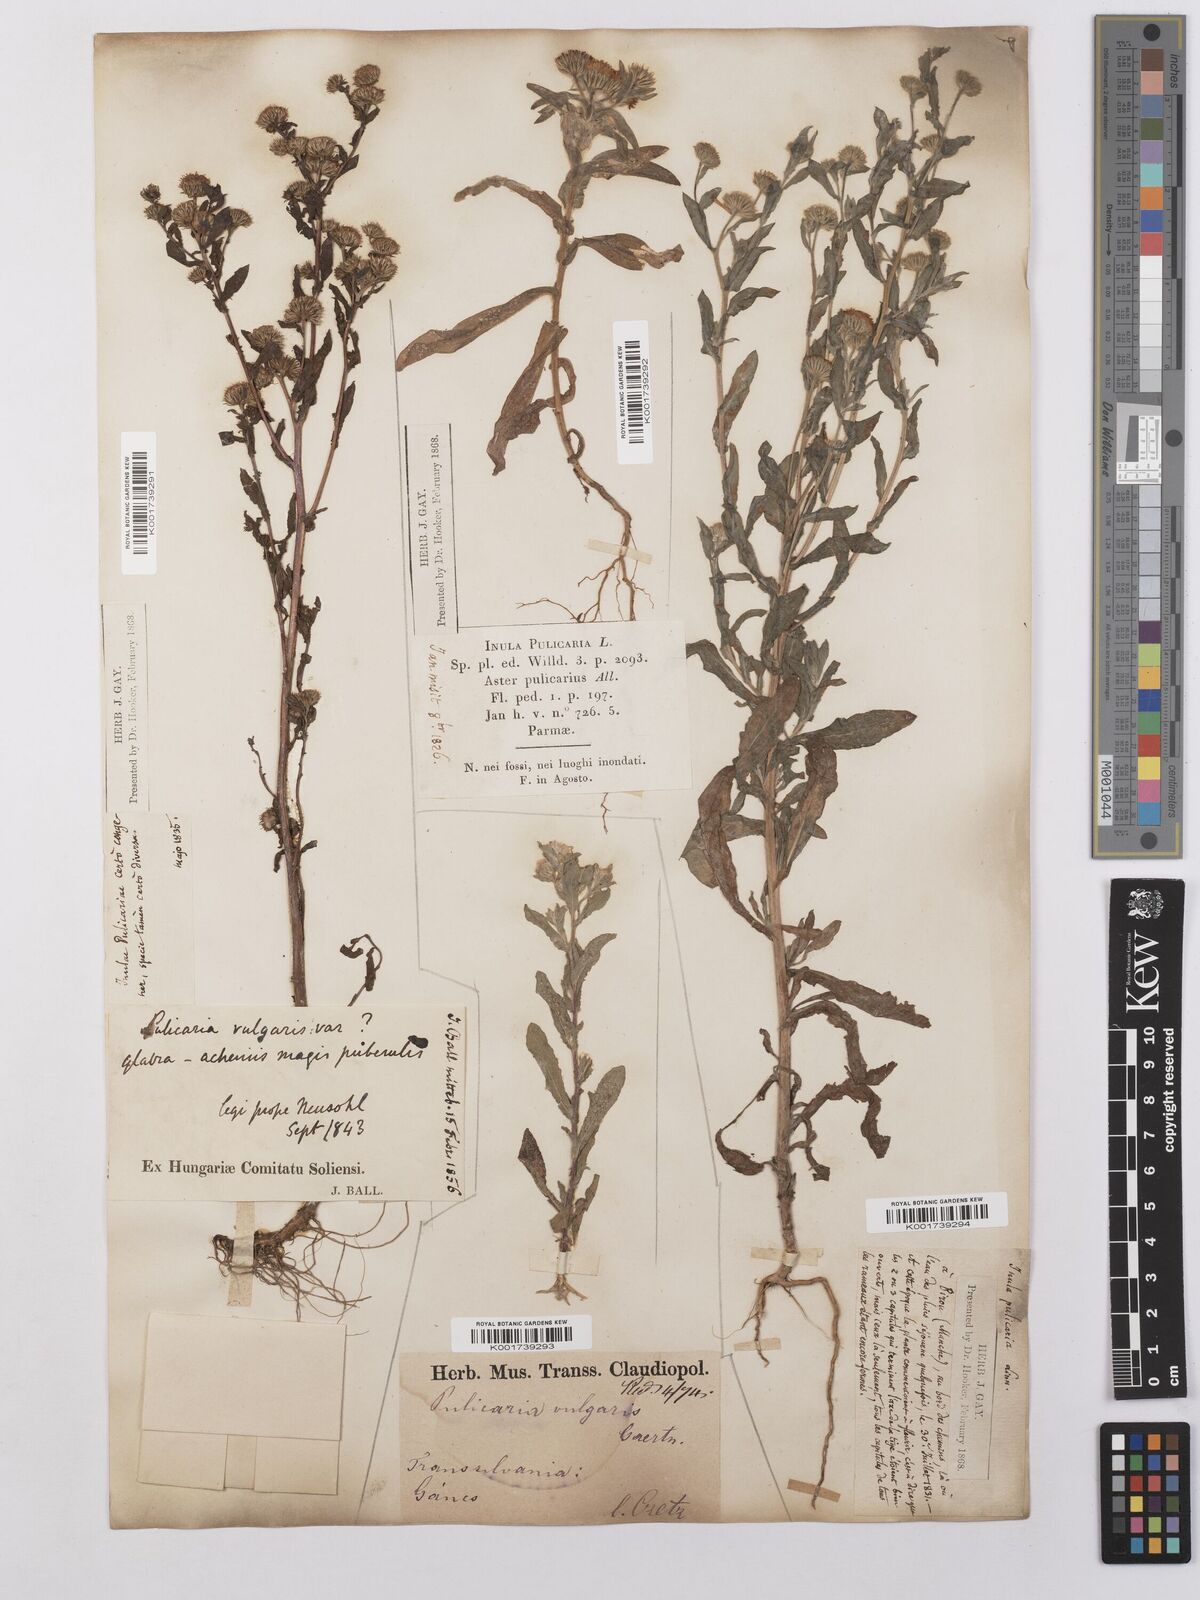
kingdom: Plantae
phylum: Tracheophyta
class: Magnoliopsida
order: Asterales
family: Asteraceae
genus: Pulicaria
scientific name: Pulicaria vulgaris
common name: Small fleabane
